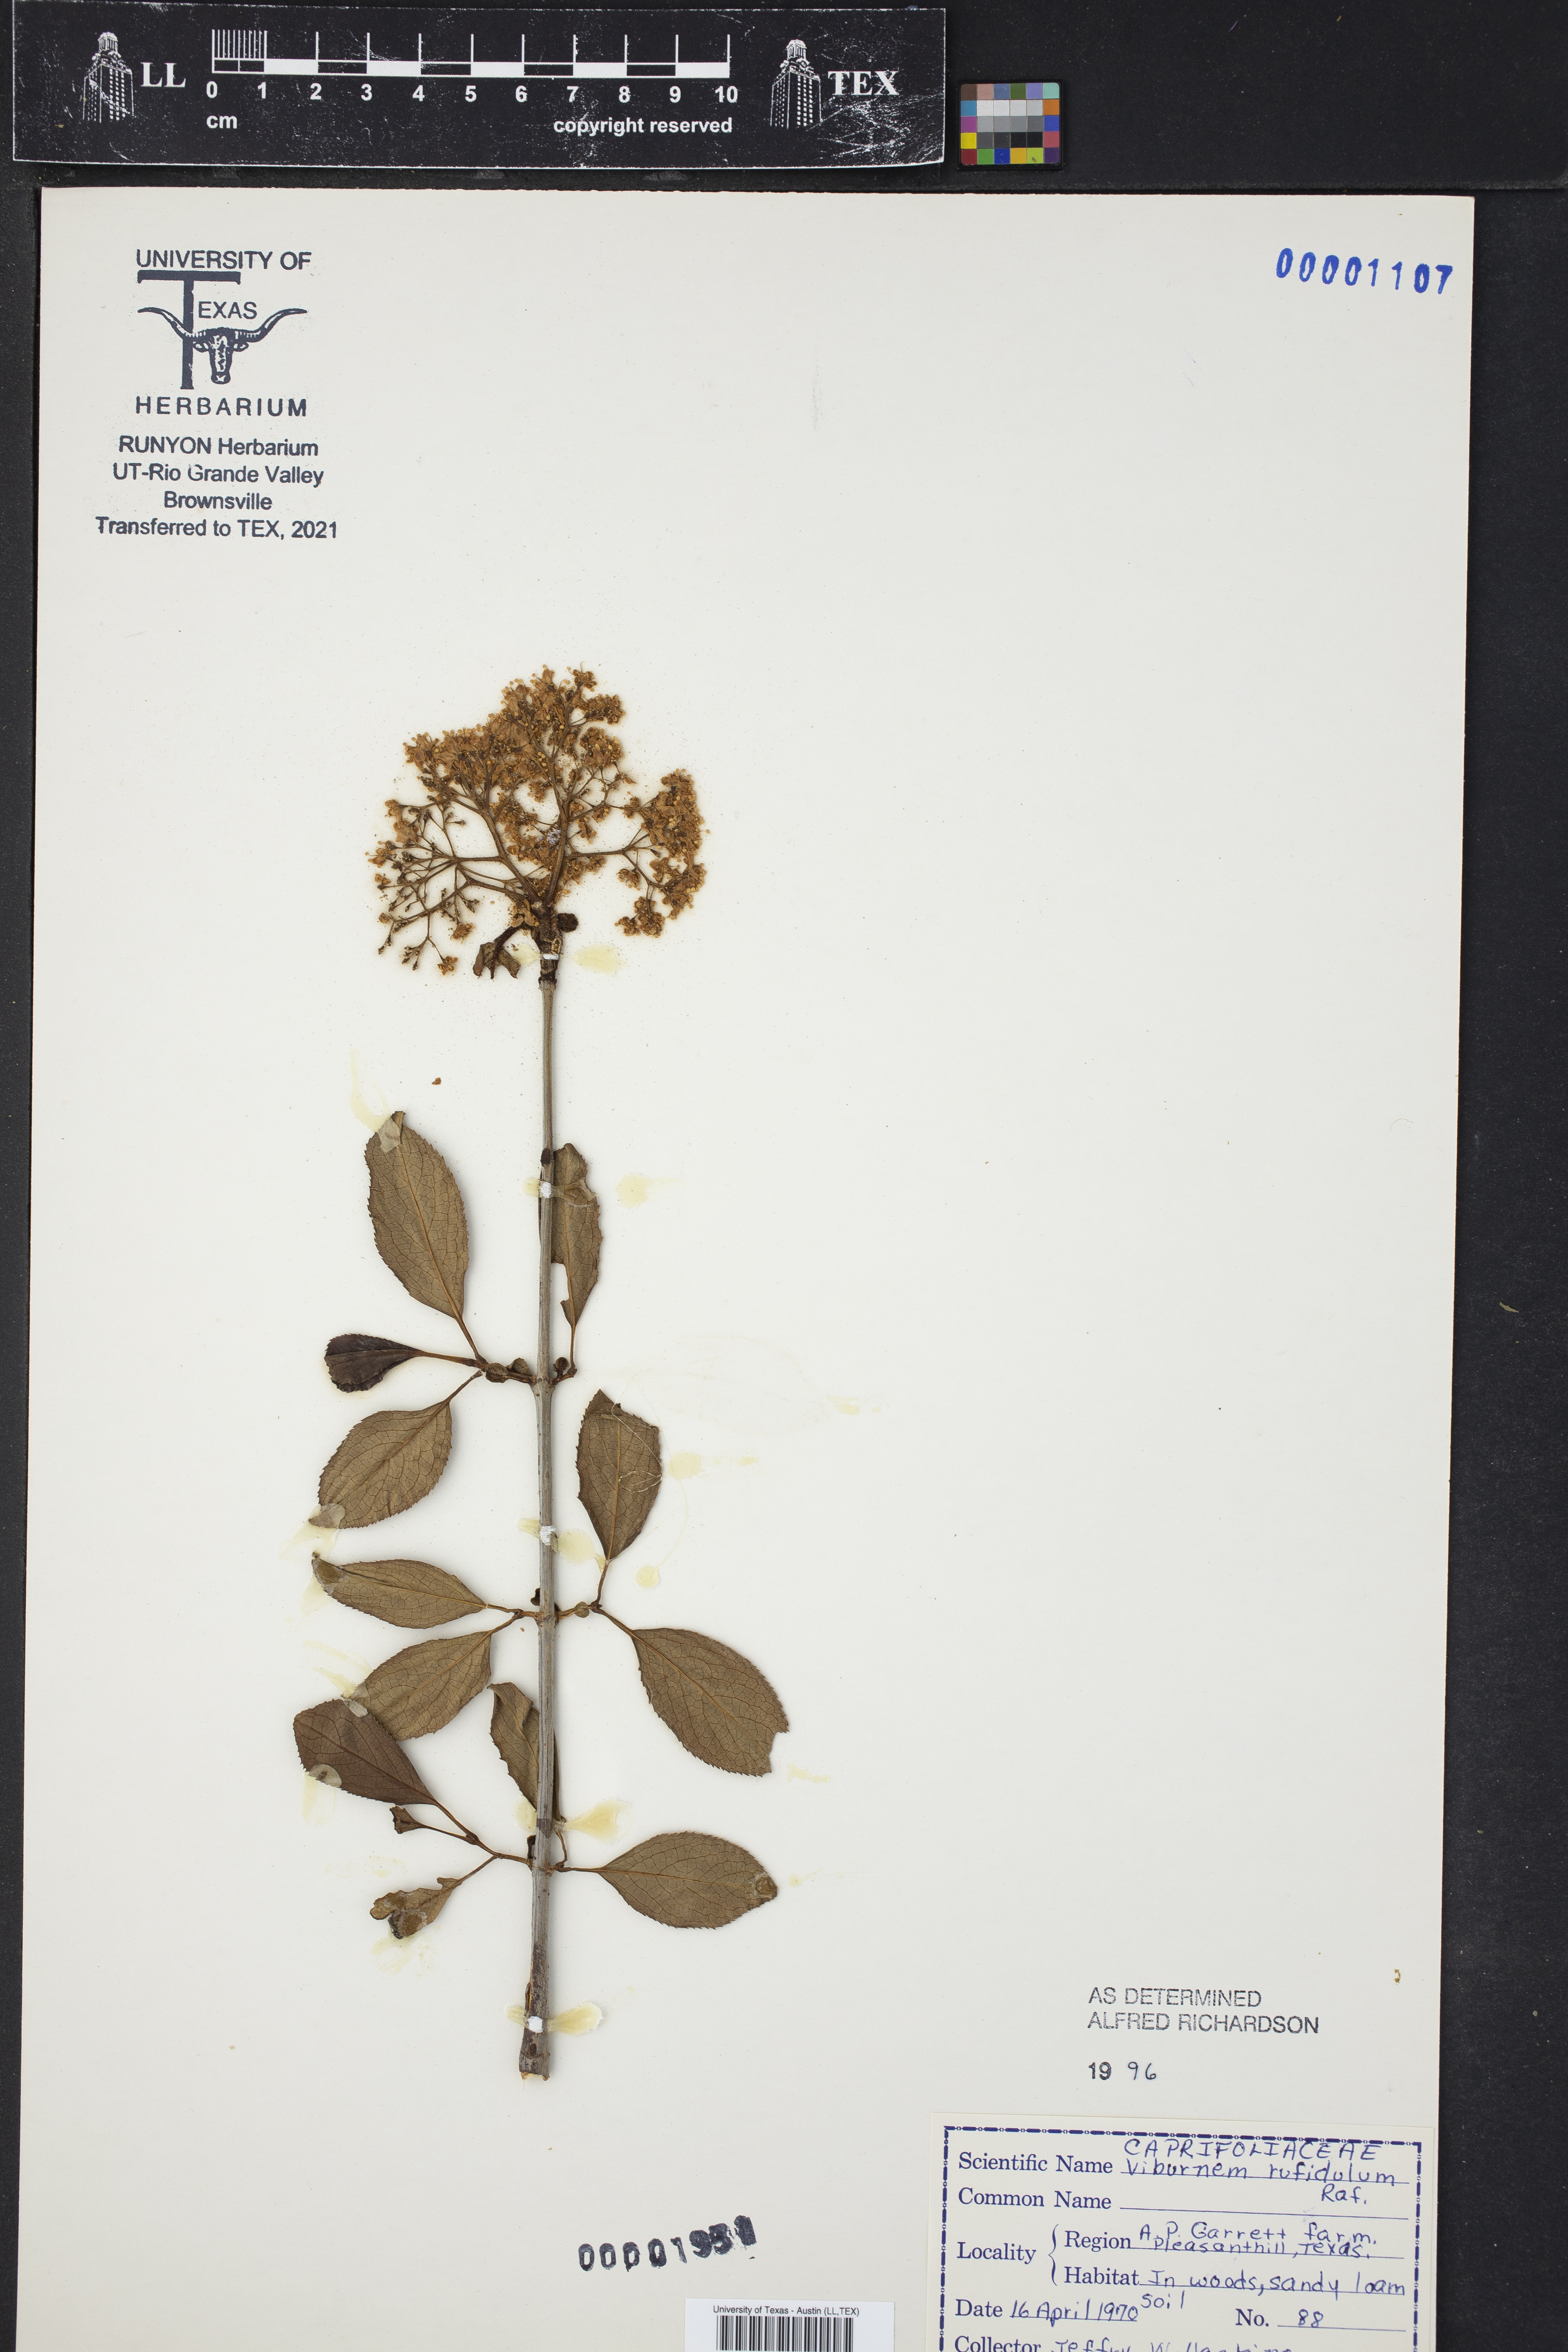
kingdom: Plantae
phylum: Tracheophyta
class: Magnoliopsida
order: Dipsacales
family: Viburnaceae
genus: Viburnum
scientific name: Viburnum rufidulum
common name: Blue haw
